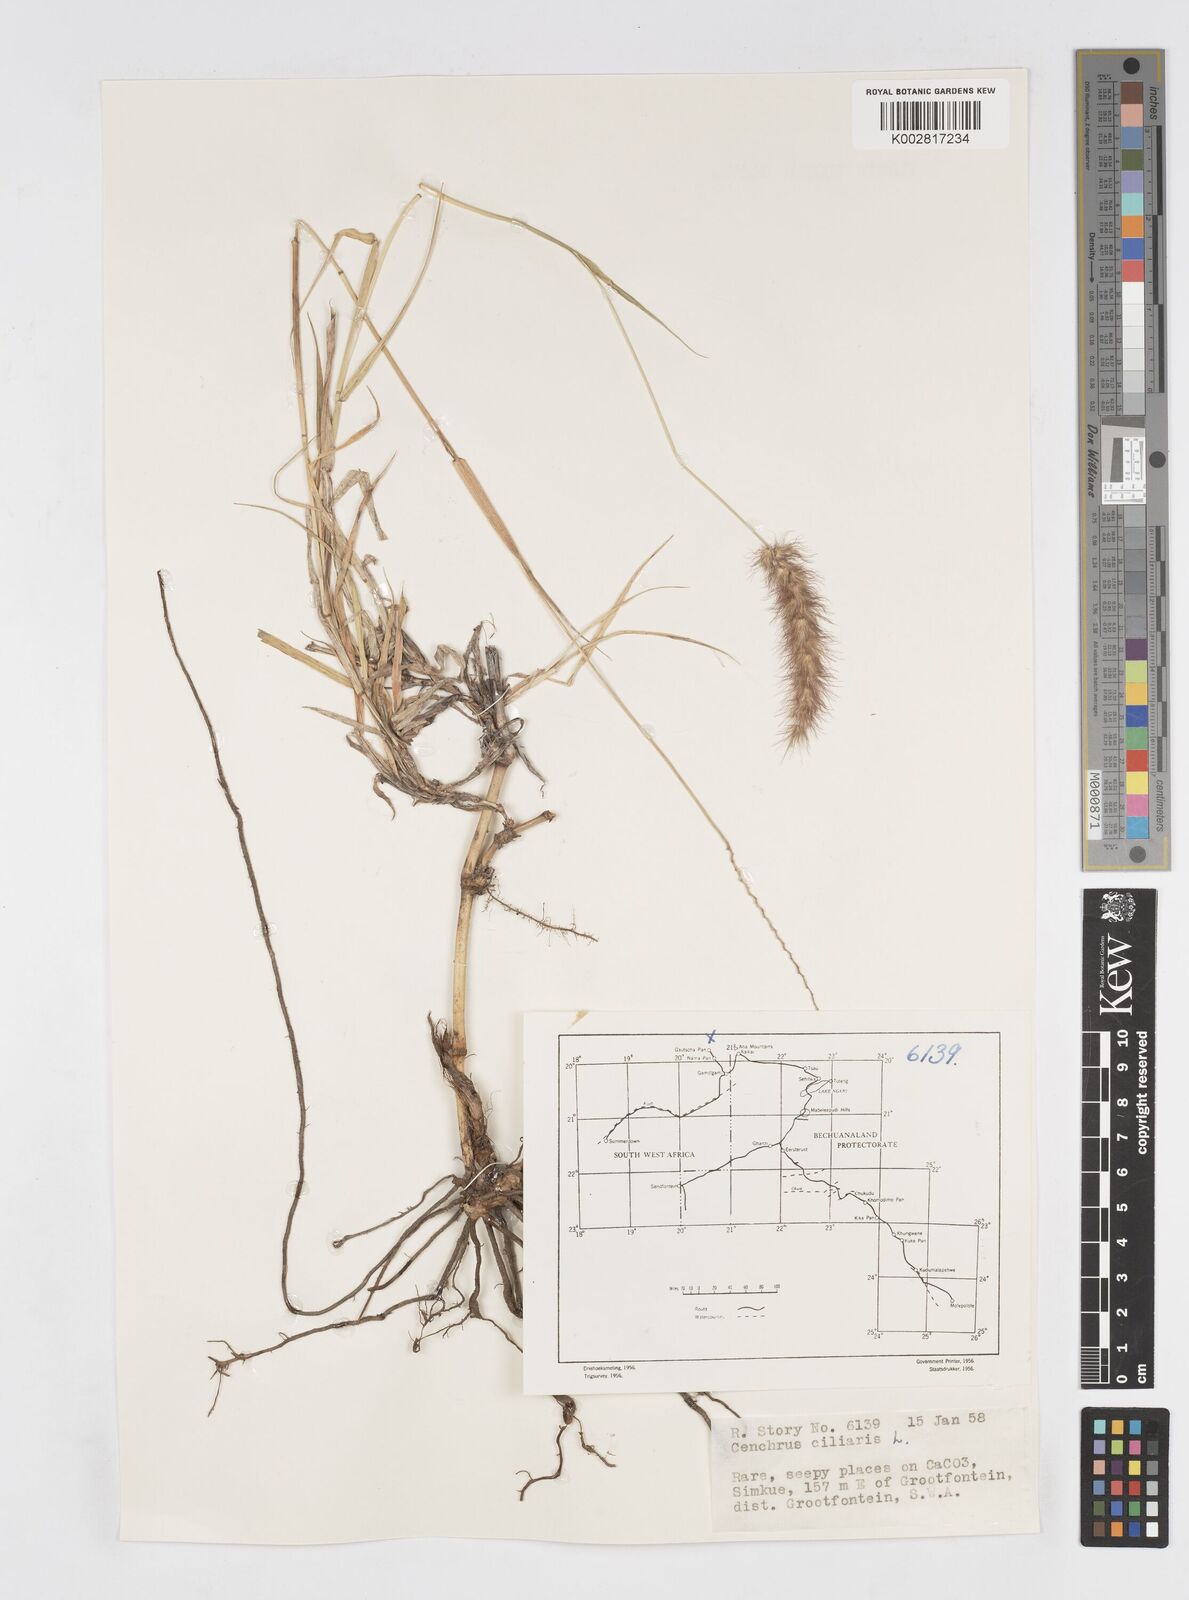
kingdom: Plantae
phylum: Tracheophyta
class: Liliopsida
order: Poales
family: Poaceae
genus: Cenchrus
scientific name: Cenchrus ciliaris
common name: Buffelgrass
